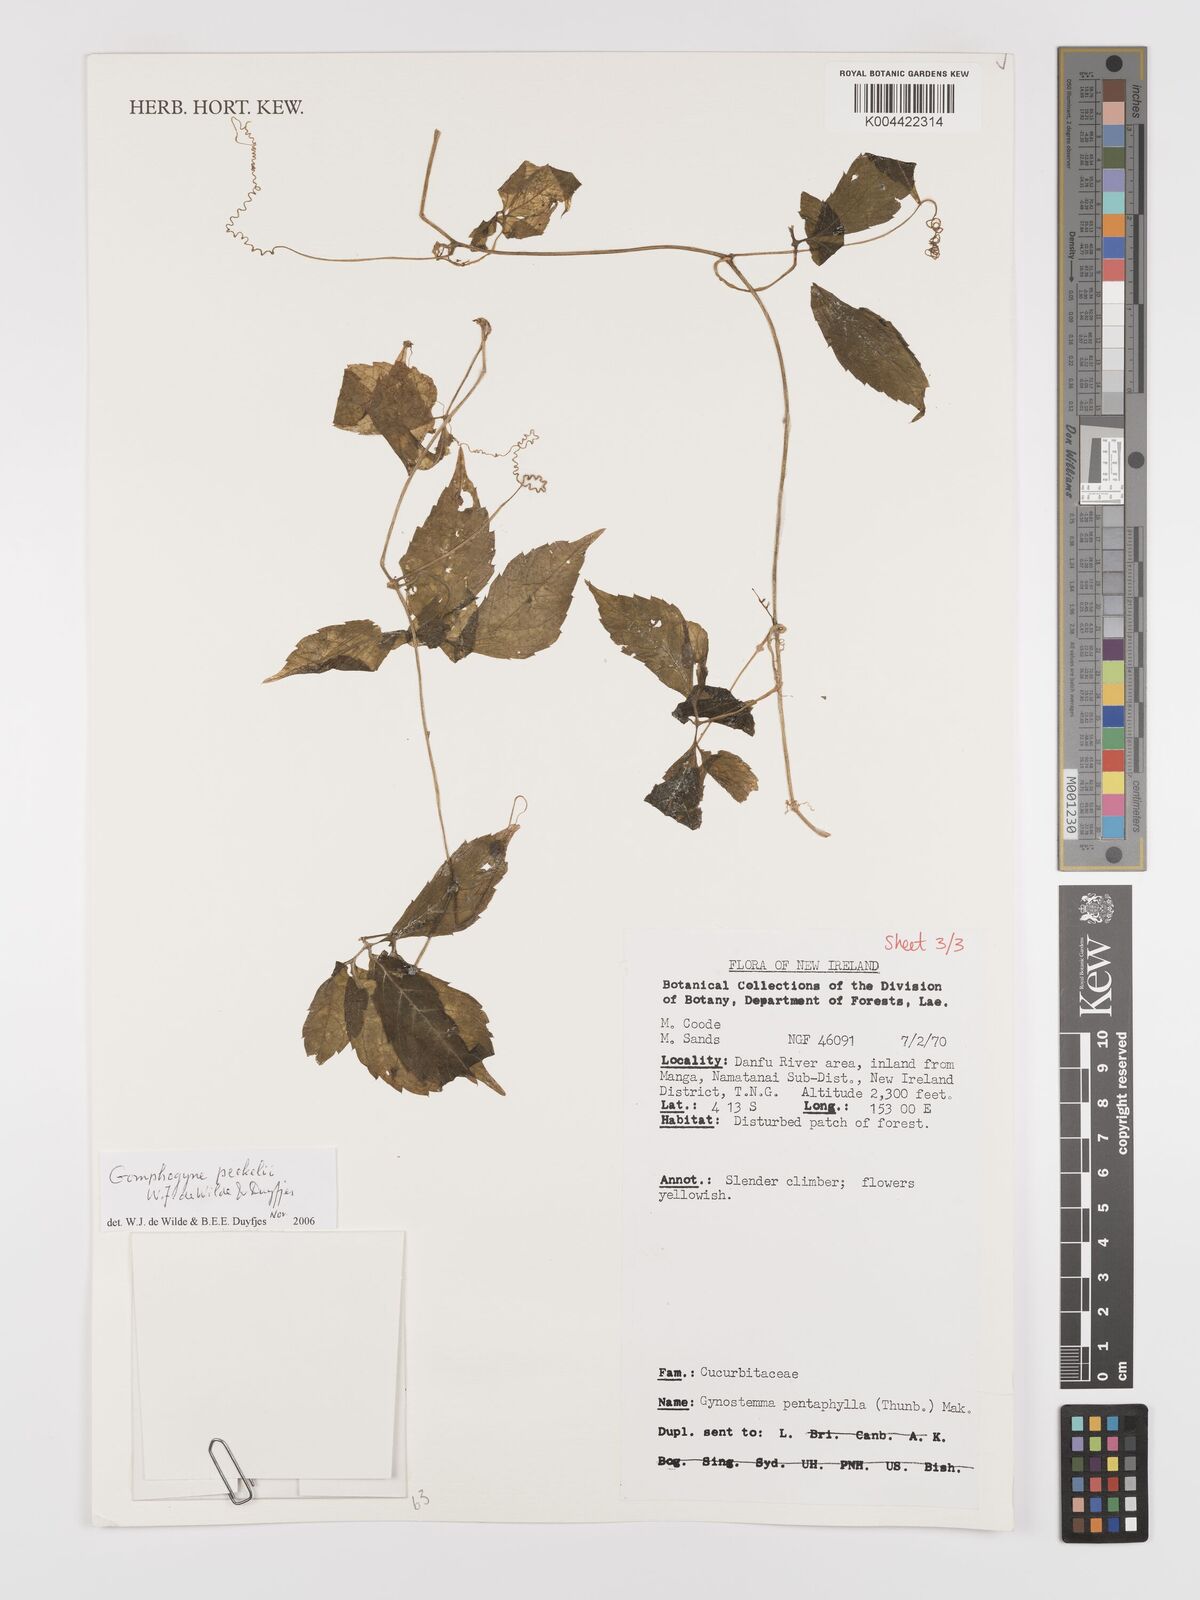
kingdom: Plantae
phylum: Tracheophyta
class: Magnoliopsida
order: Cucurbitales
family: Cucurbitaceae
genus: Hemsleya
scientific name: Hemsleya peekelii
